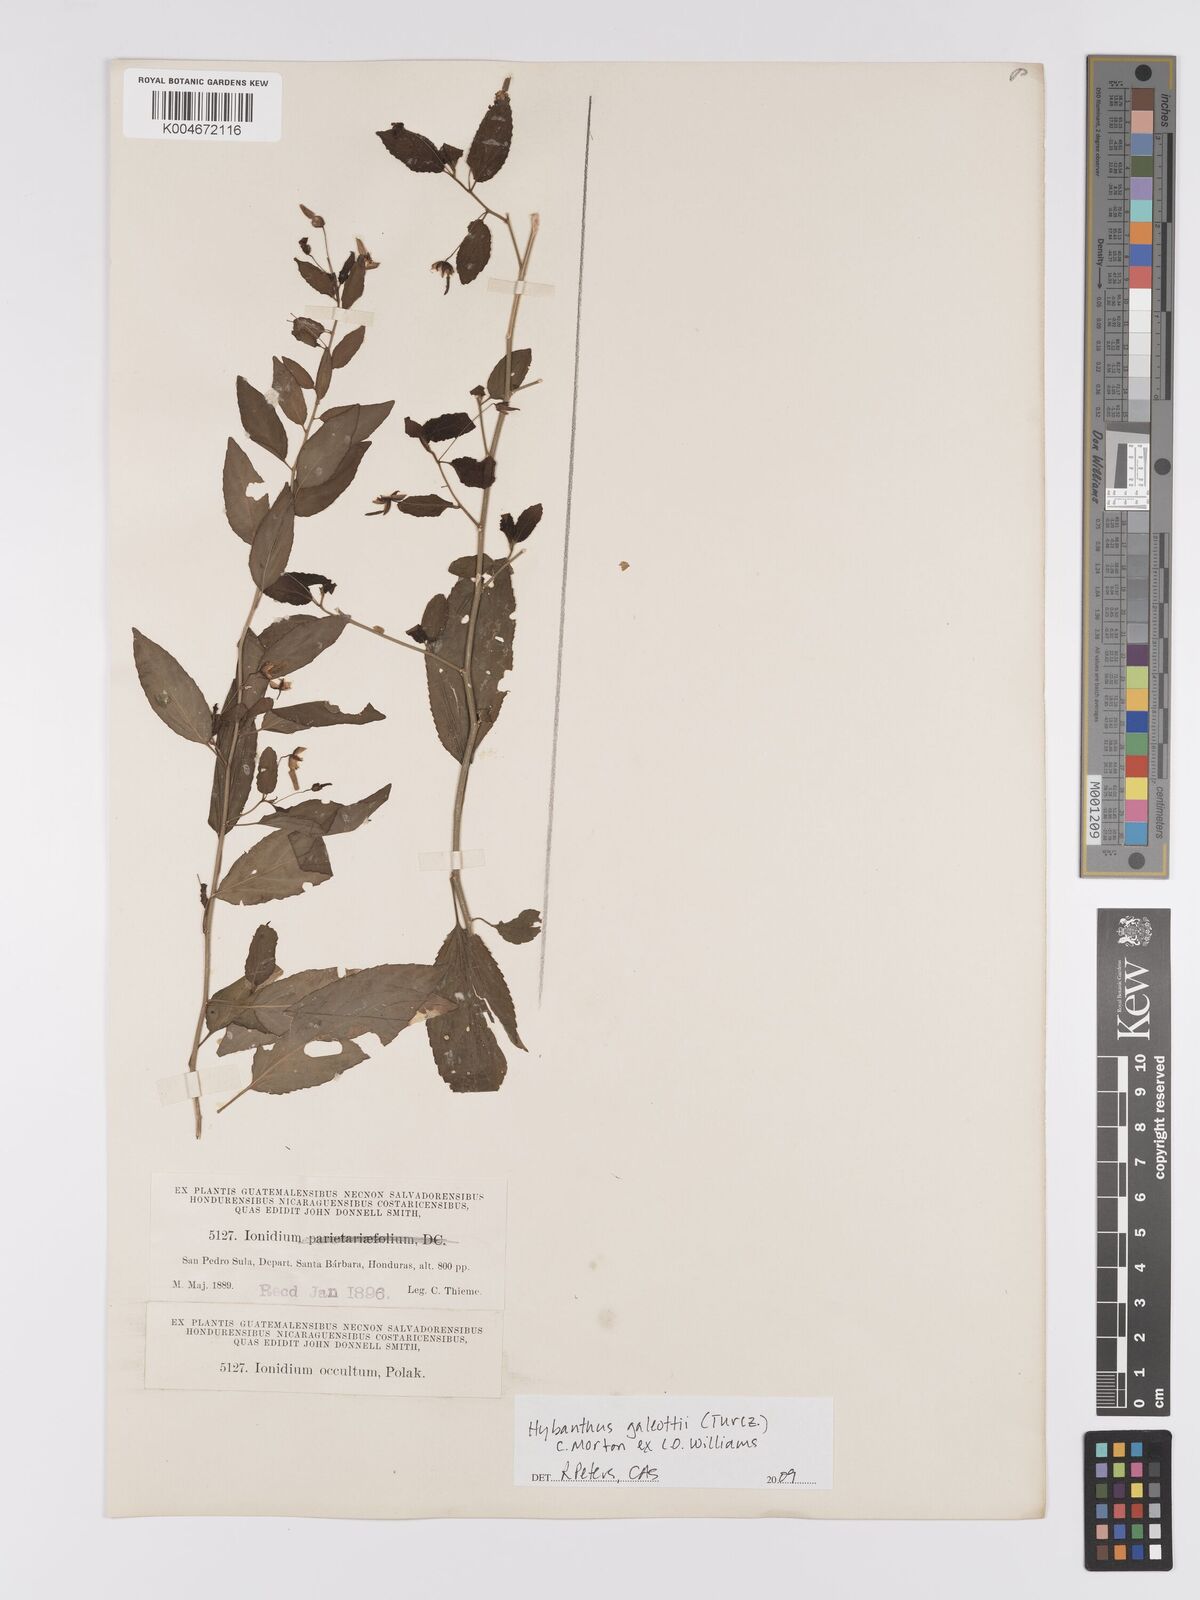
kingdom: Plantae
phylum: Tracheophyta
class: Magnoliopsida
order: Malpighiales
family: Violaceae
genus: Hybanthus
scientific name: Hybanthus galeottii
